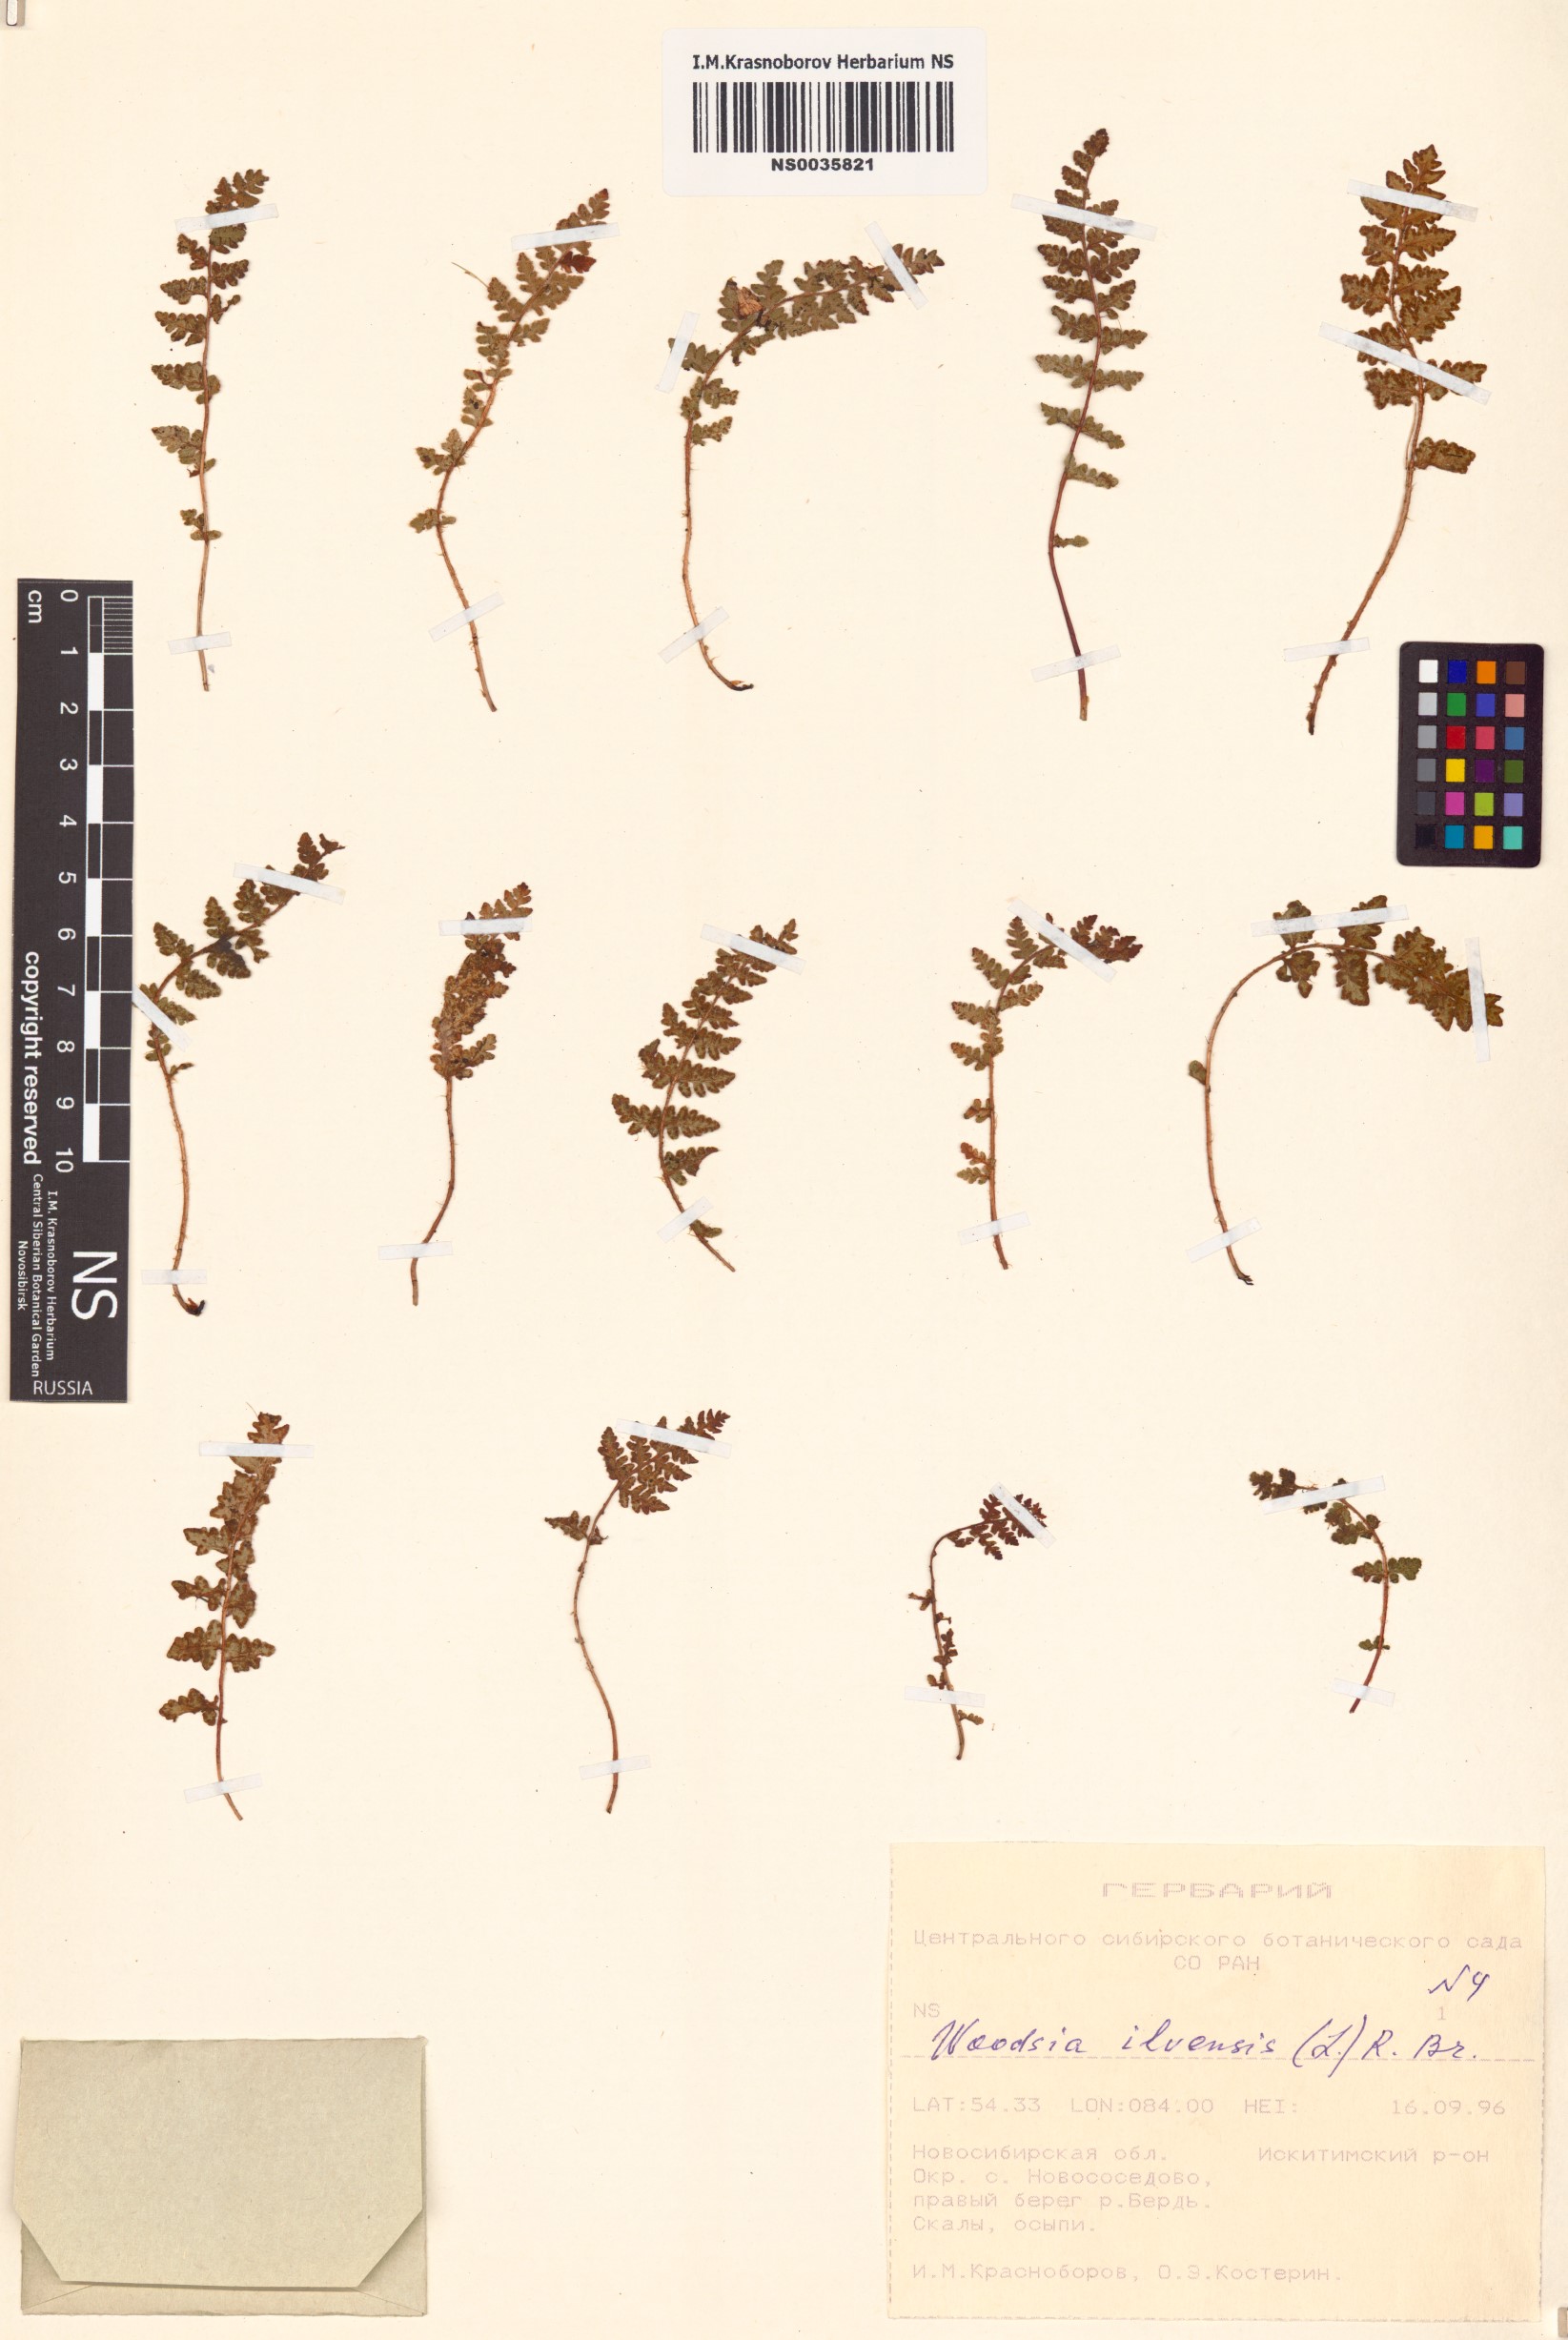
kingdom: Plantae
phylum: Tracheophyta
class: Polypodiopsida
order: Polypodiales
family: Woodsiaceae
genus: Woodsia
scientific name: Woodsia ilvensis
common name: Fragrant woodsia
